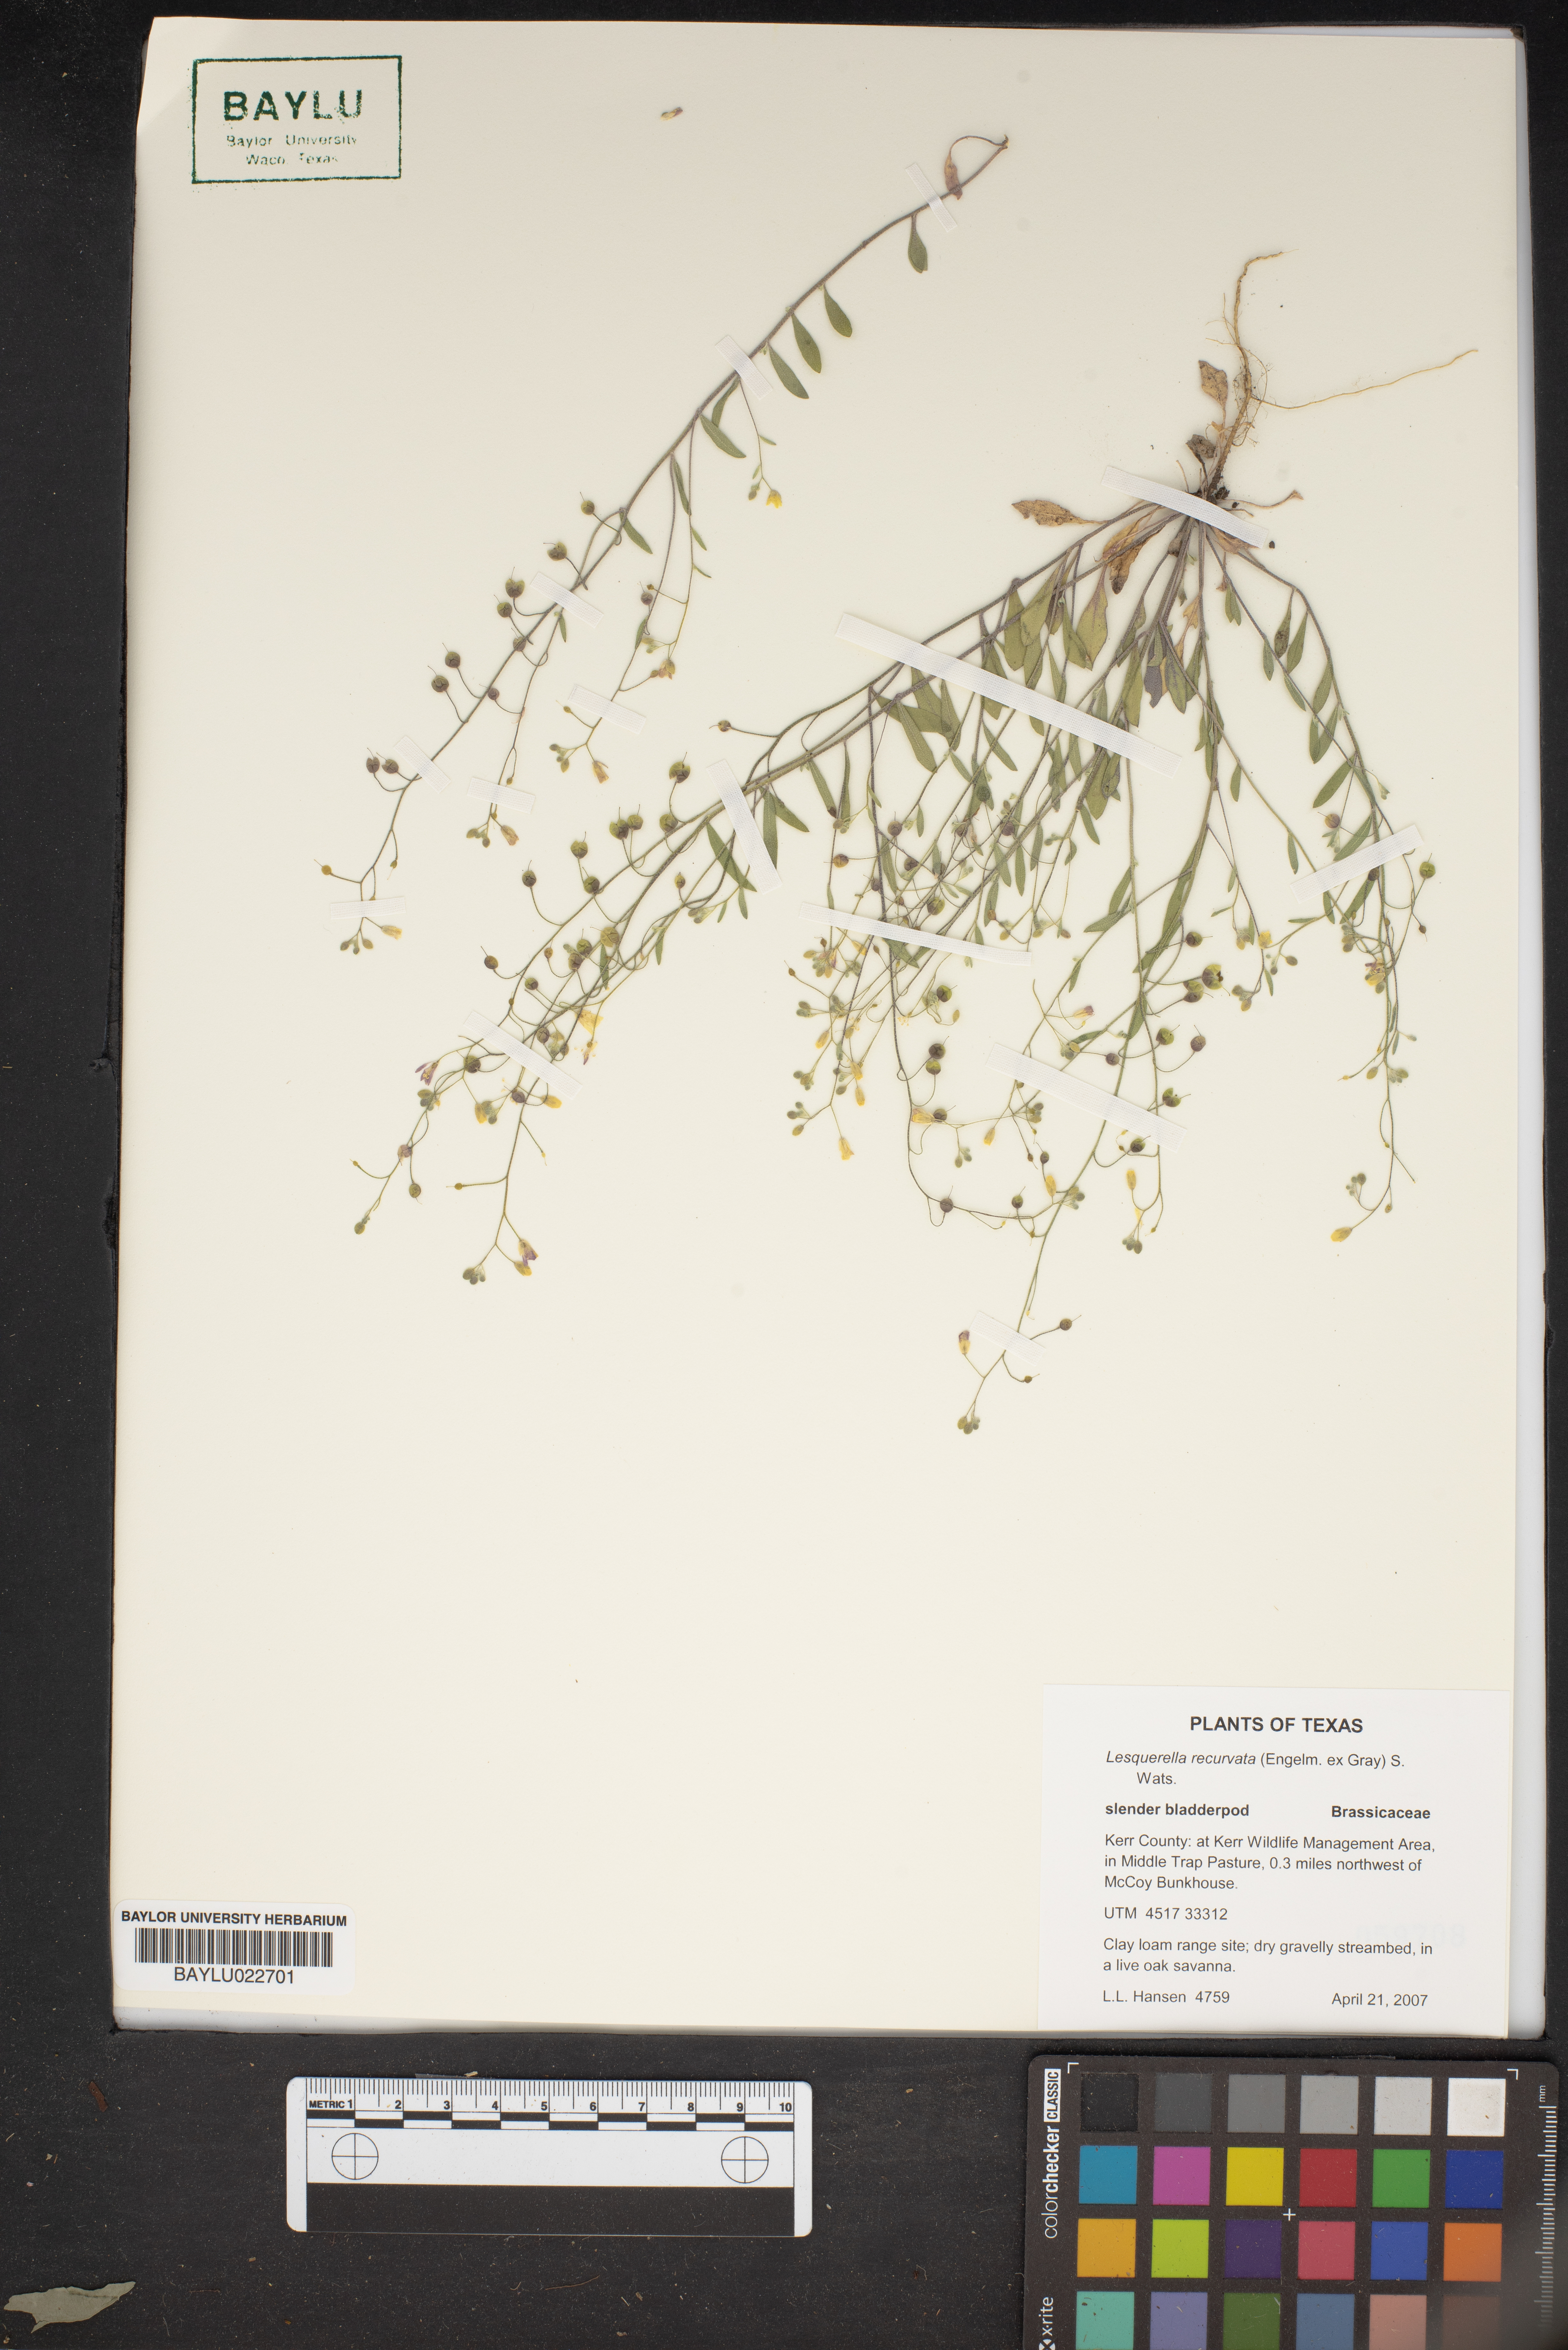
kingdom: Plantae
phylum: Tracheophyta
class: Magnoliopsida
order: Brassicales
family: Brassicaceae
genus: Physaria
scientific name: Physaria recurvata
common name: Gaslight bladderpod
